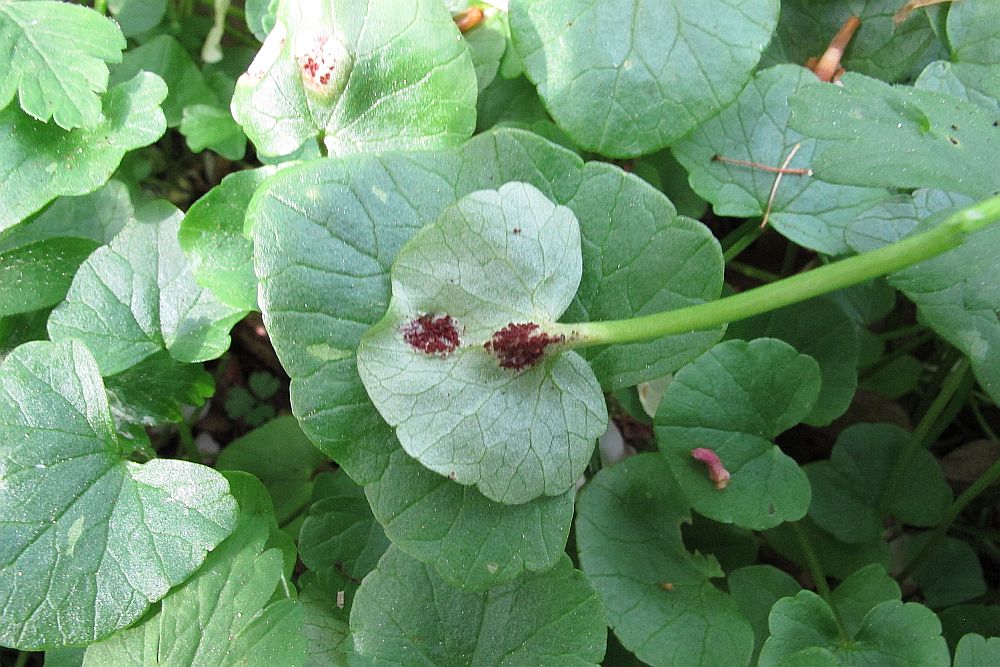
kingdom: Fungi
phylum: Basidiomycota
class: Ustilaginomycetes
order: Urocystidales
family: Urocystidaceae
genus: Urocystis
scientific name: Urocystis ficariae
